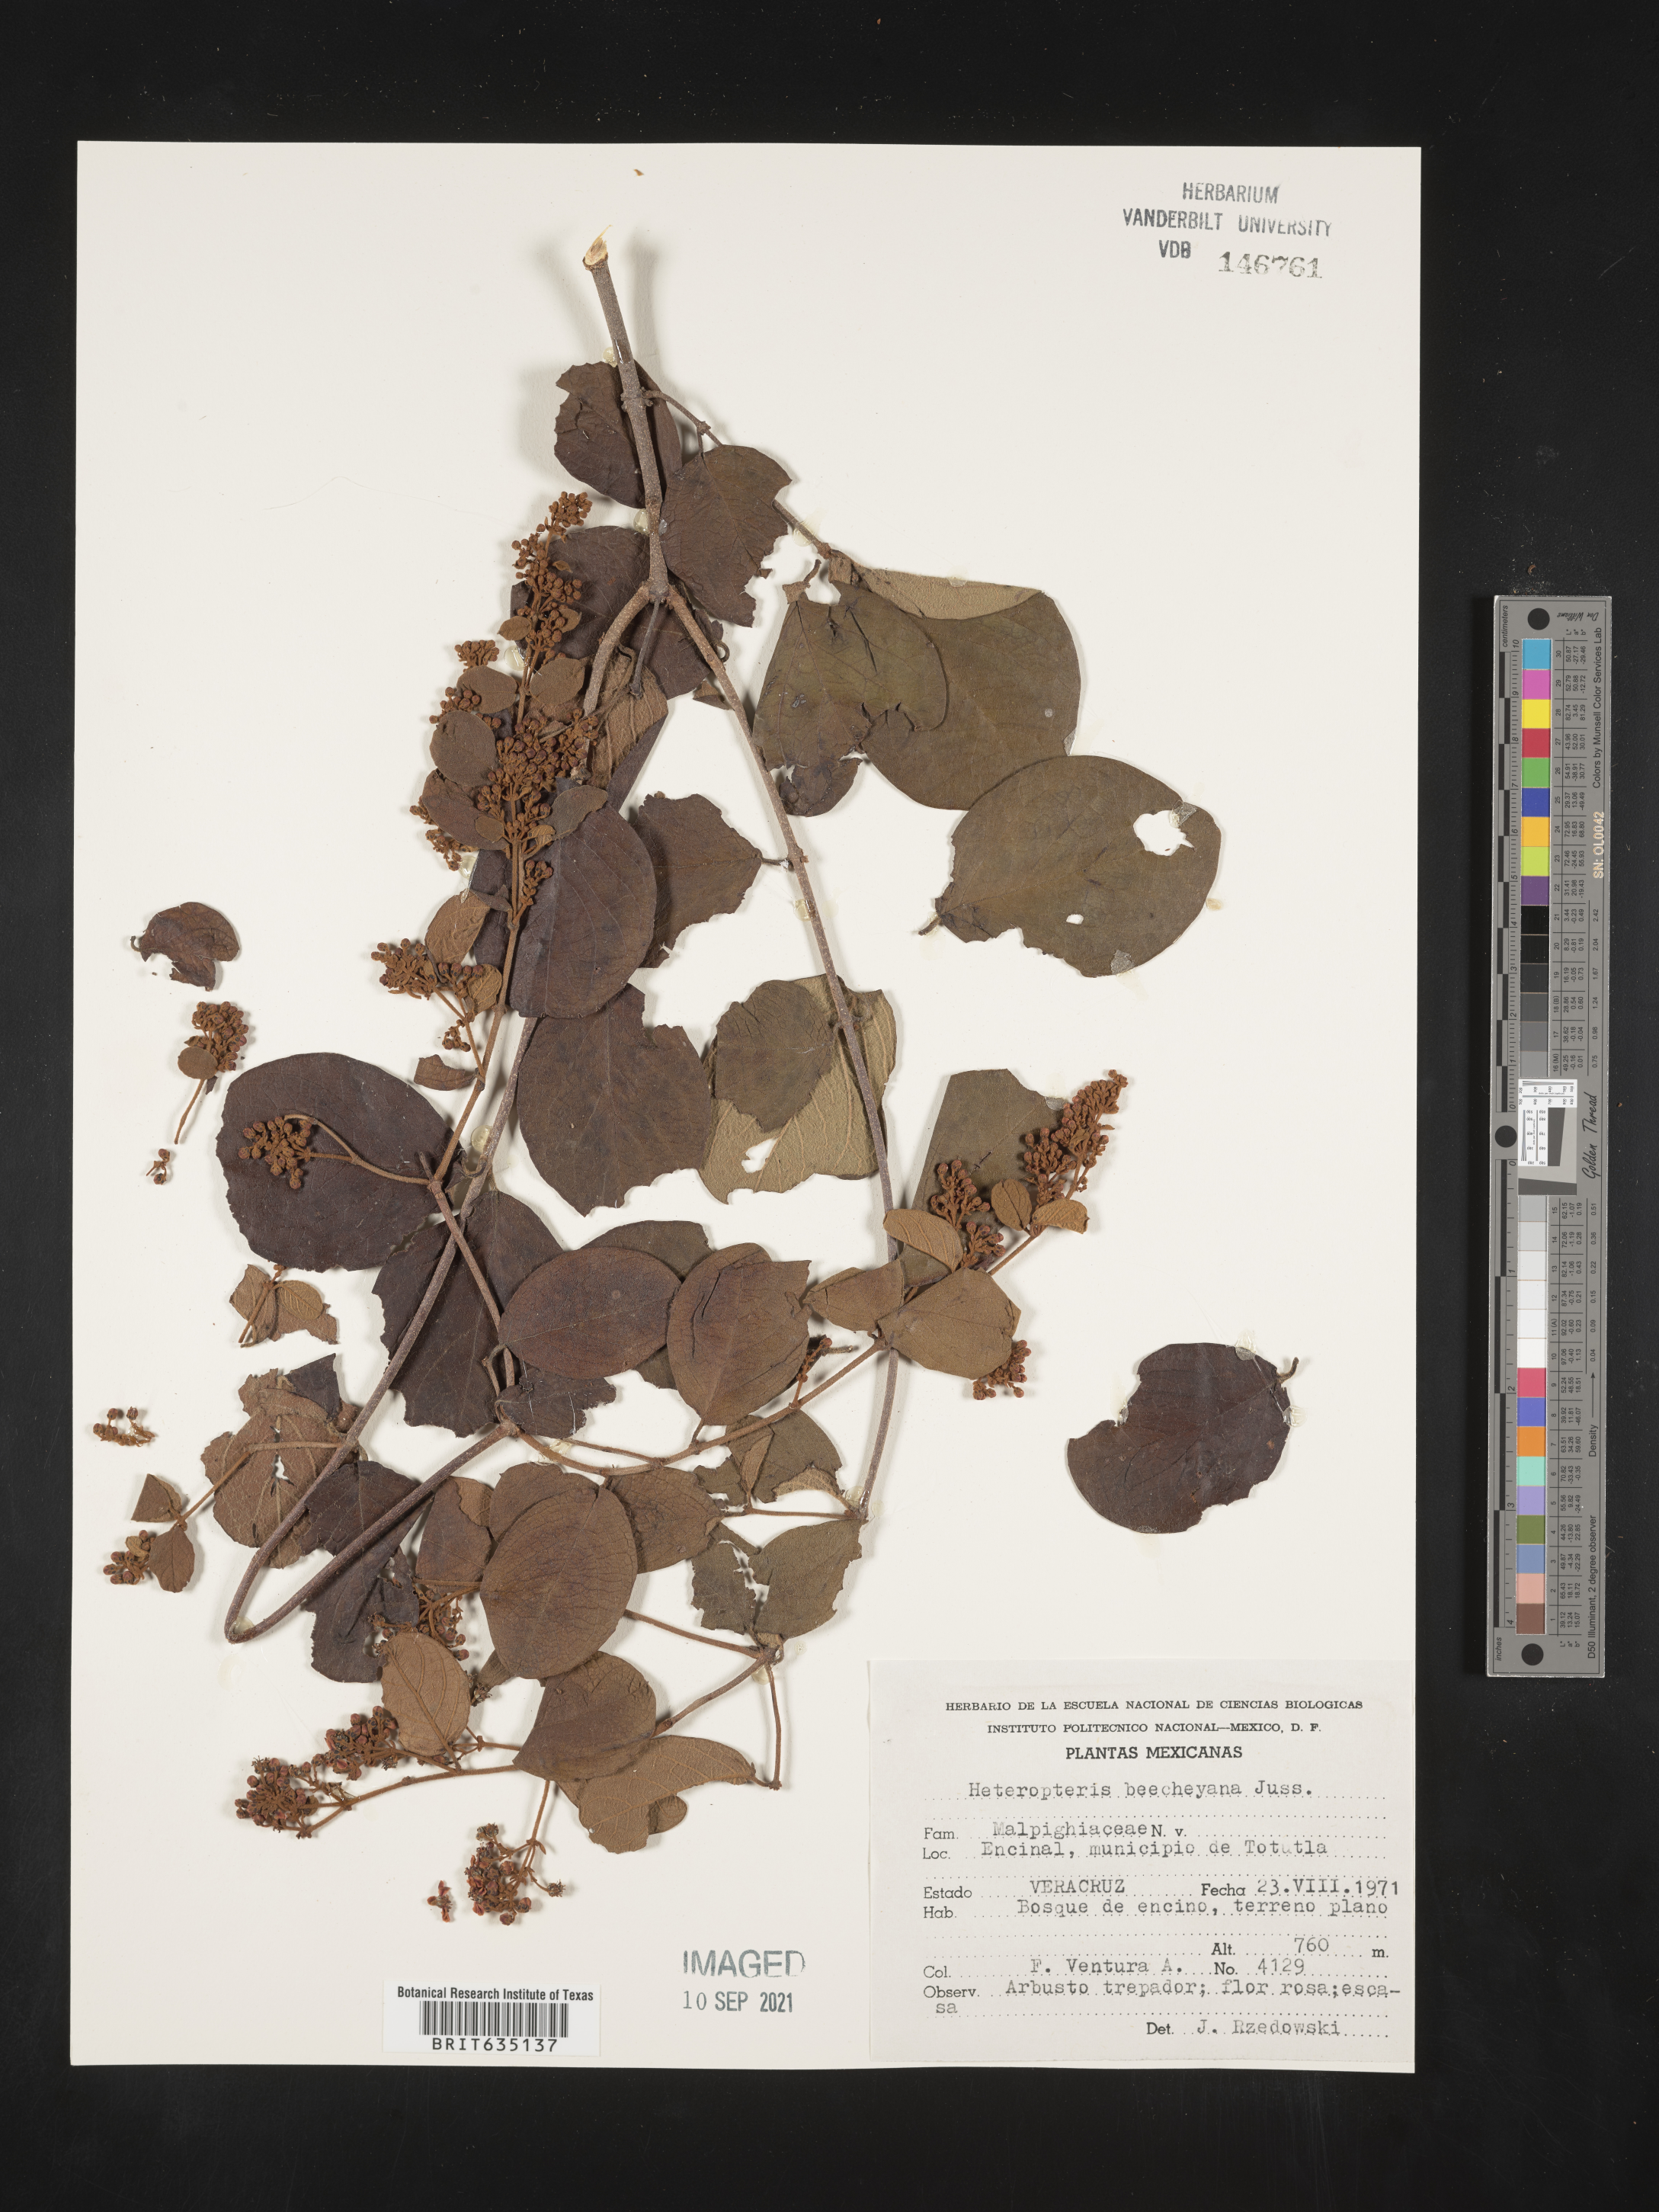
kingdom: Plantae
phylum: Tracheophyta
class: Polypodiopsida
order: Polypodiales
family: Pteridaceae
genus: Heteropteris
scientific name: Heteropteris
